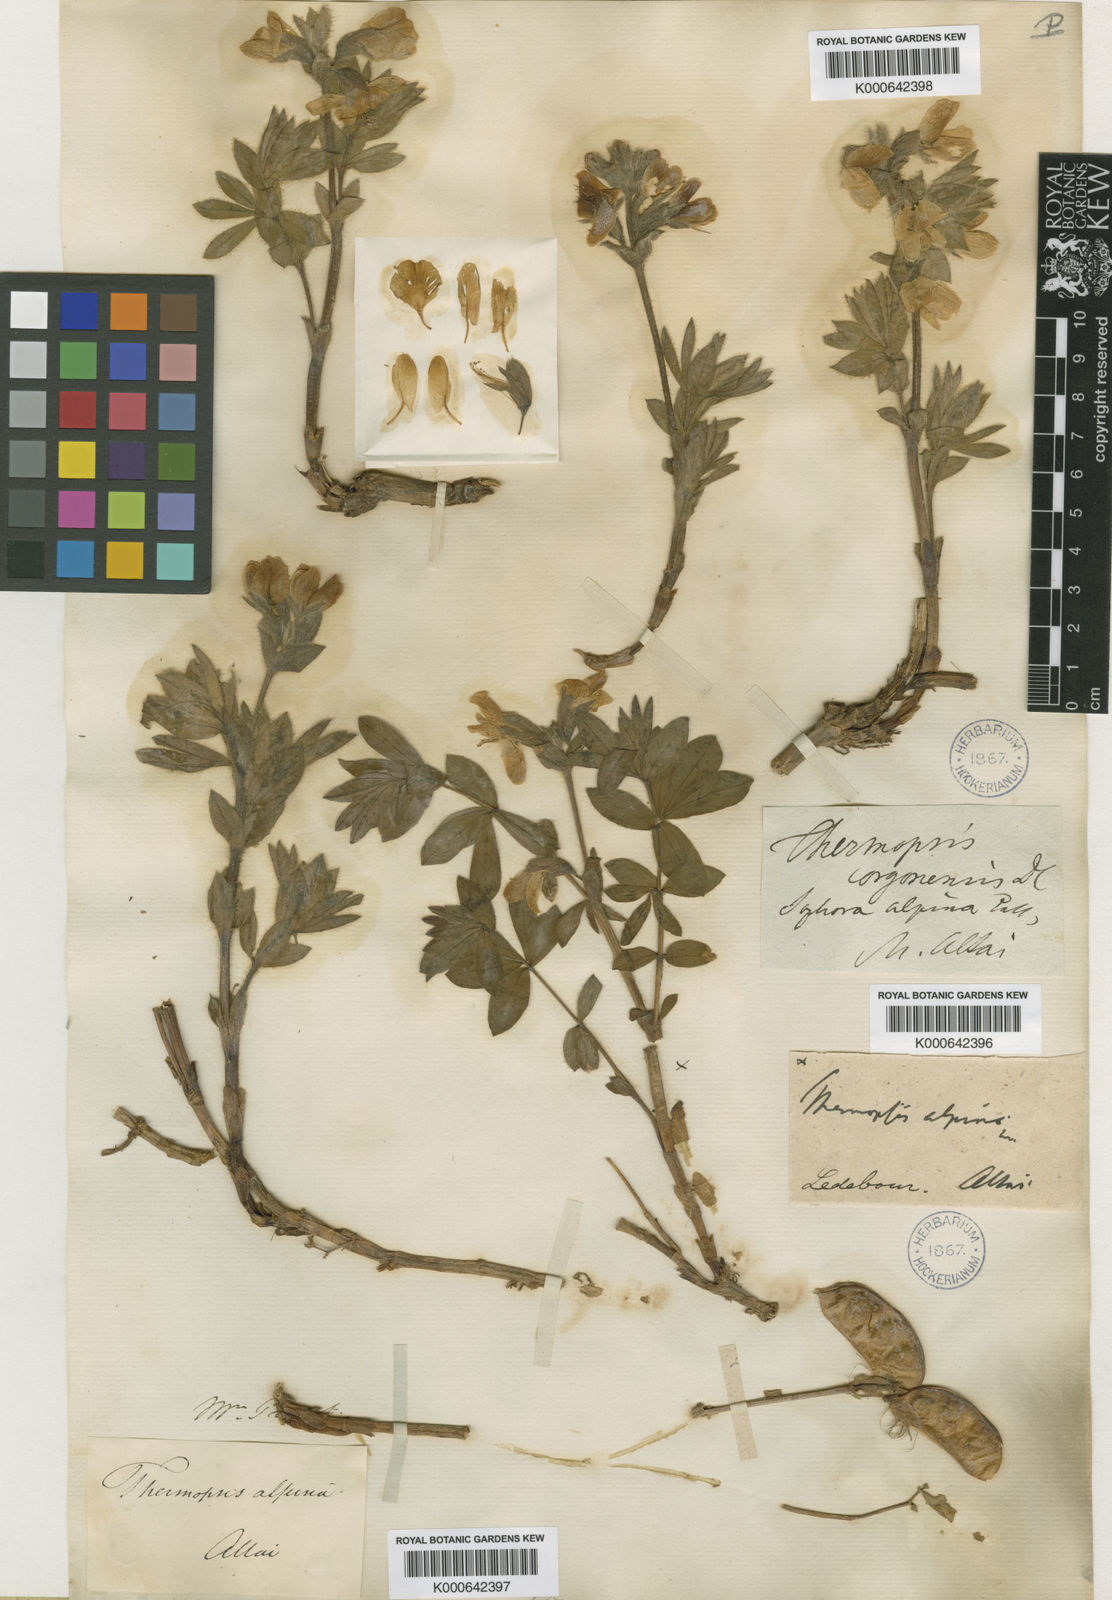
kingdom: Plantae
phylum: Tracheophyta
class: Magnoliopsida
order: Fabales
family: Fabaceae
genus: Thermopsis
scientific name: Thermopsis alpina
